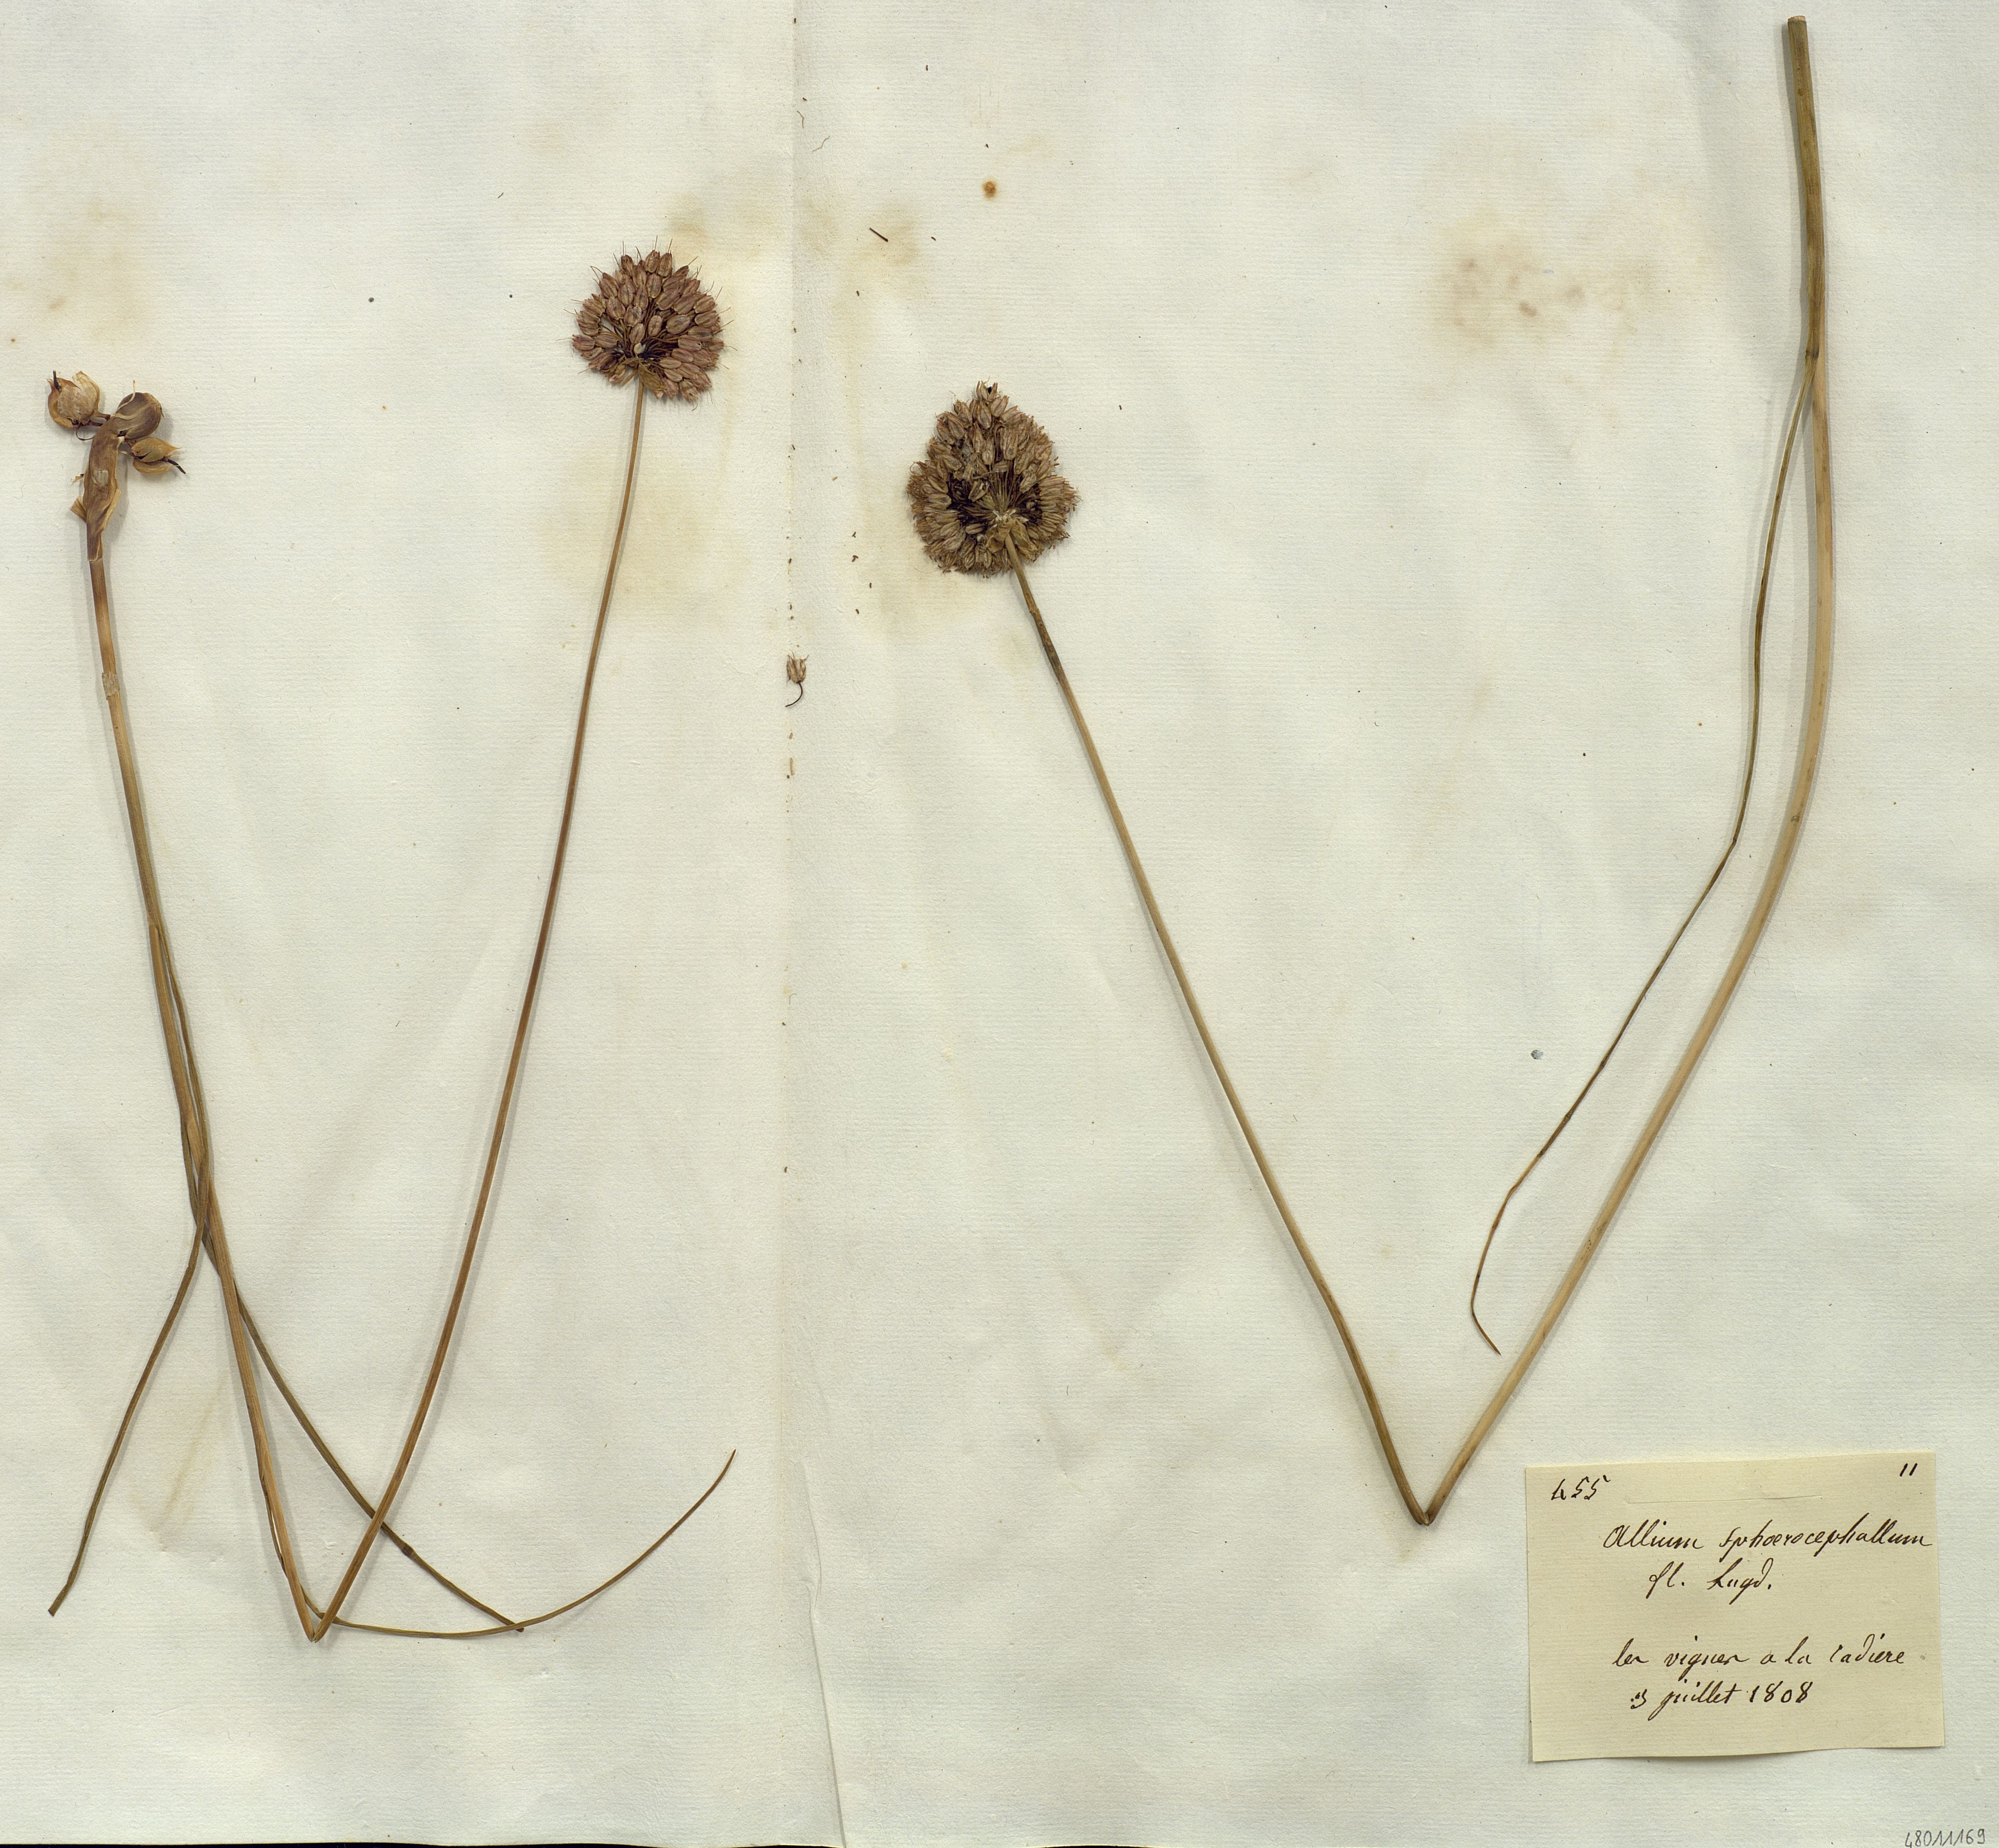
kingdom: Plantae
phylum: Tracheophyta
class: Liliopsida
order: Liliales
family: Liliaceae
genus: Allium
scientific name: Allium
